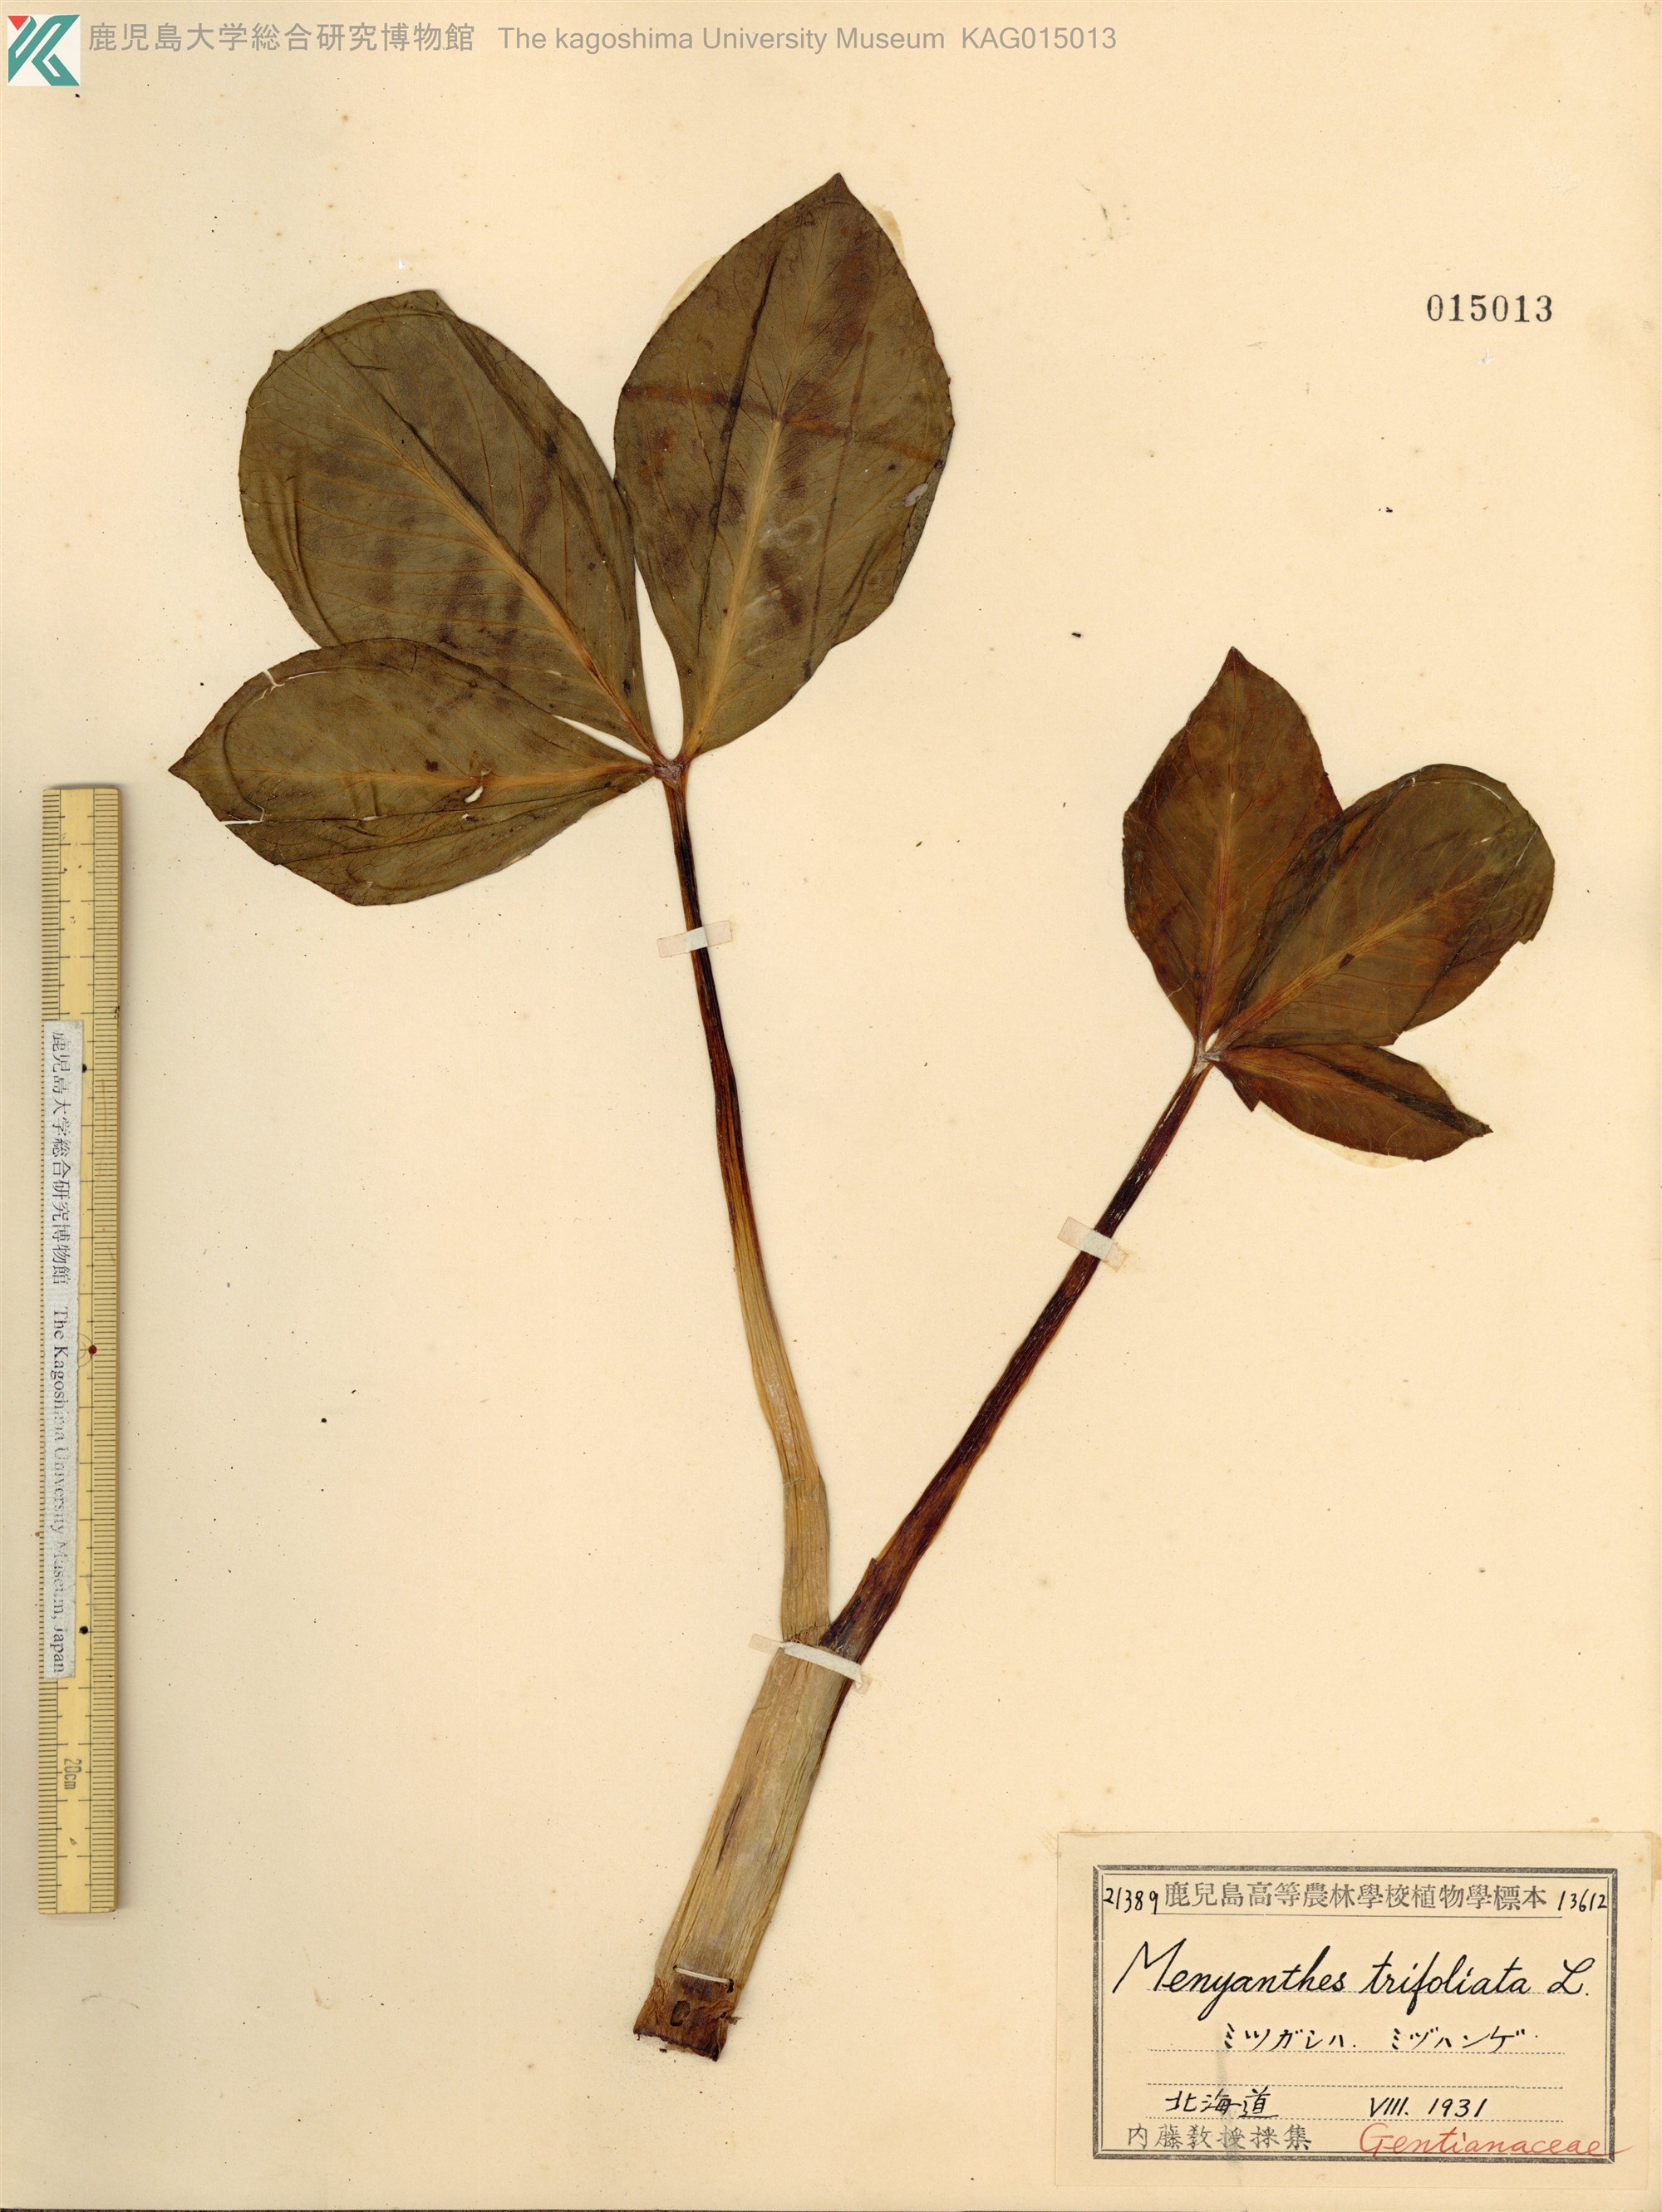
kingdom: Plantae
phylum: Tracheophyta
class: Magnoliopsida
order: Asterales
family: Menyanthaceae
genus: Menyanthes
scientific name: Menyanthes trifoliata
